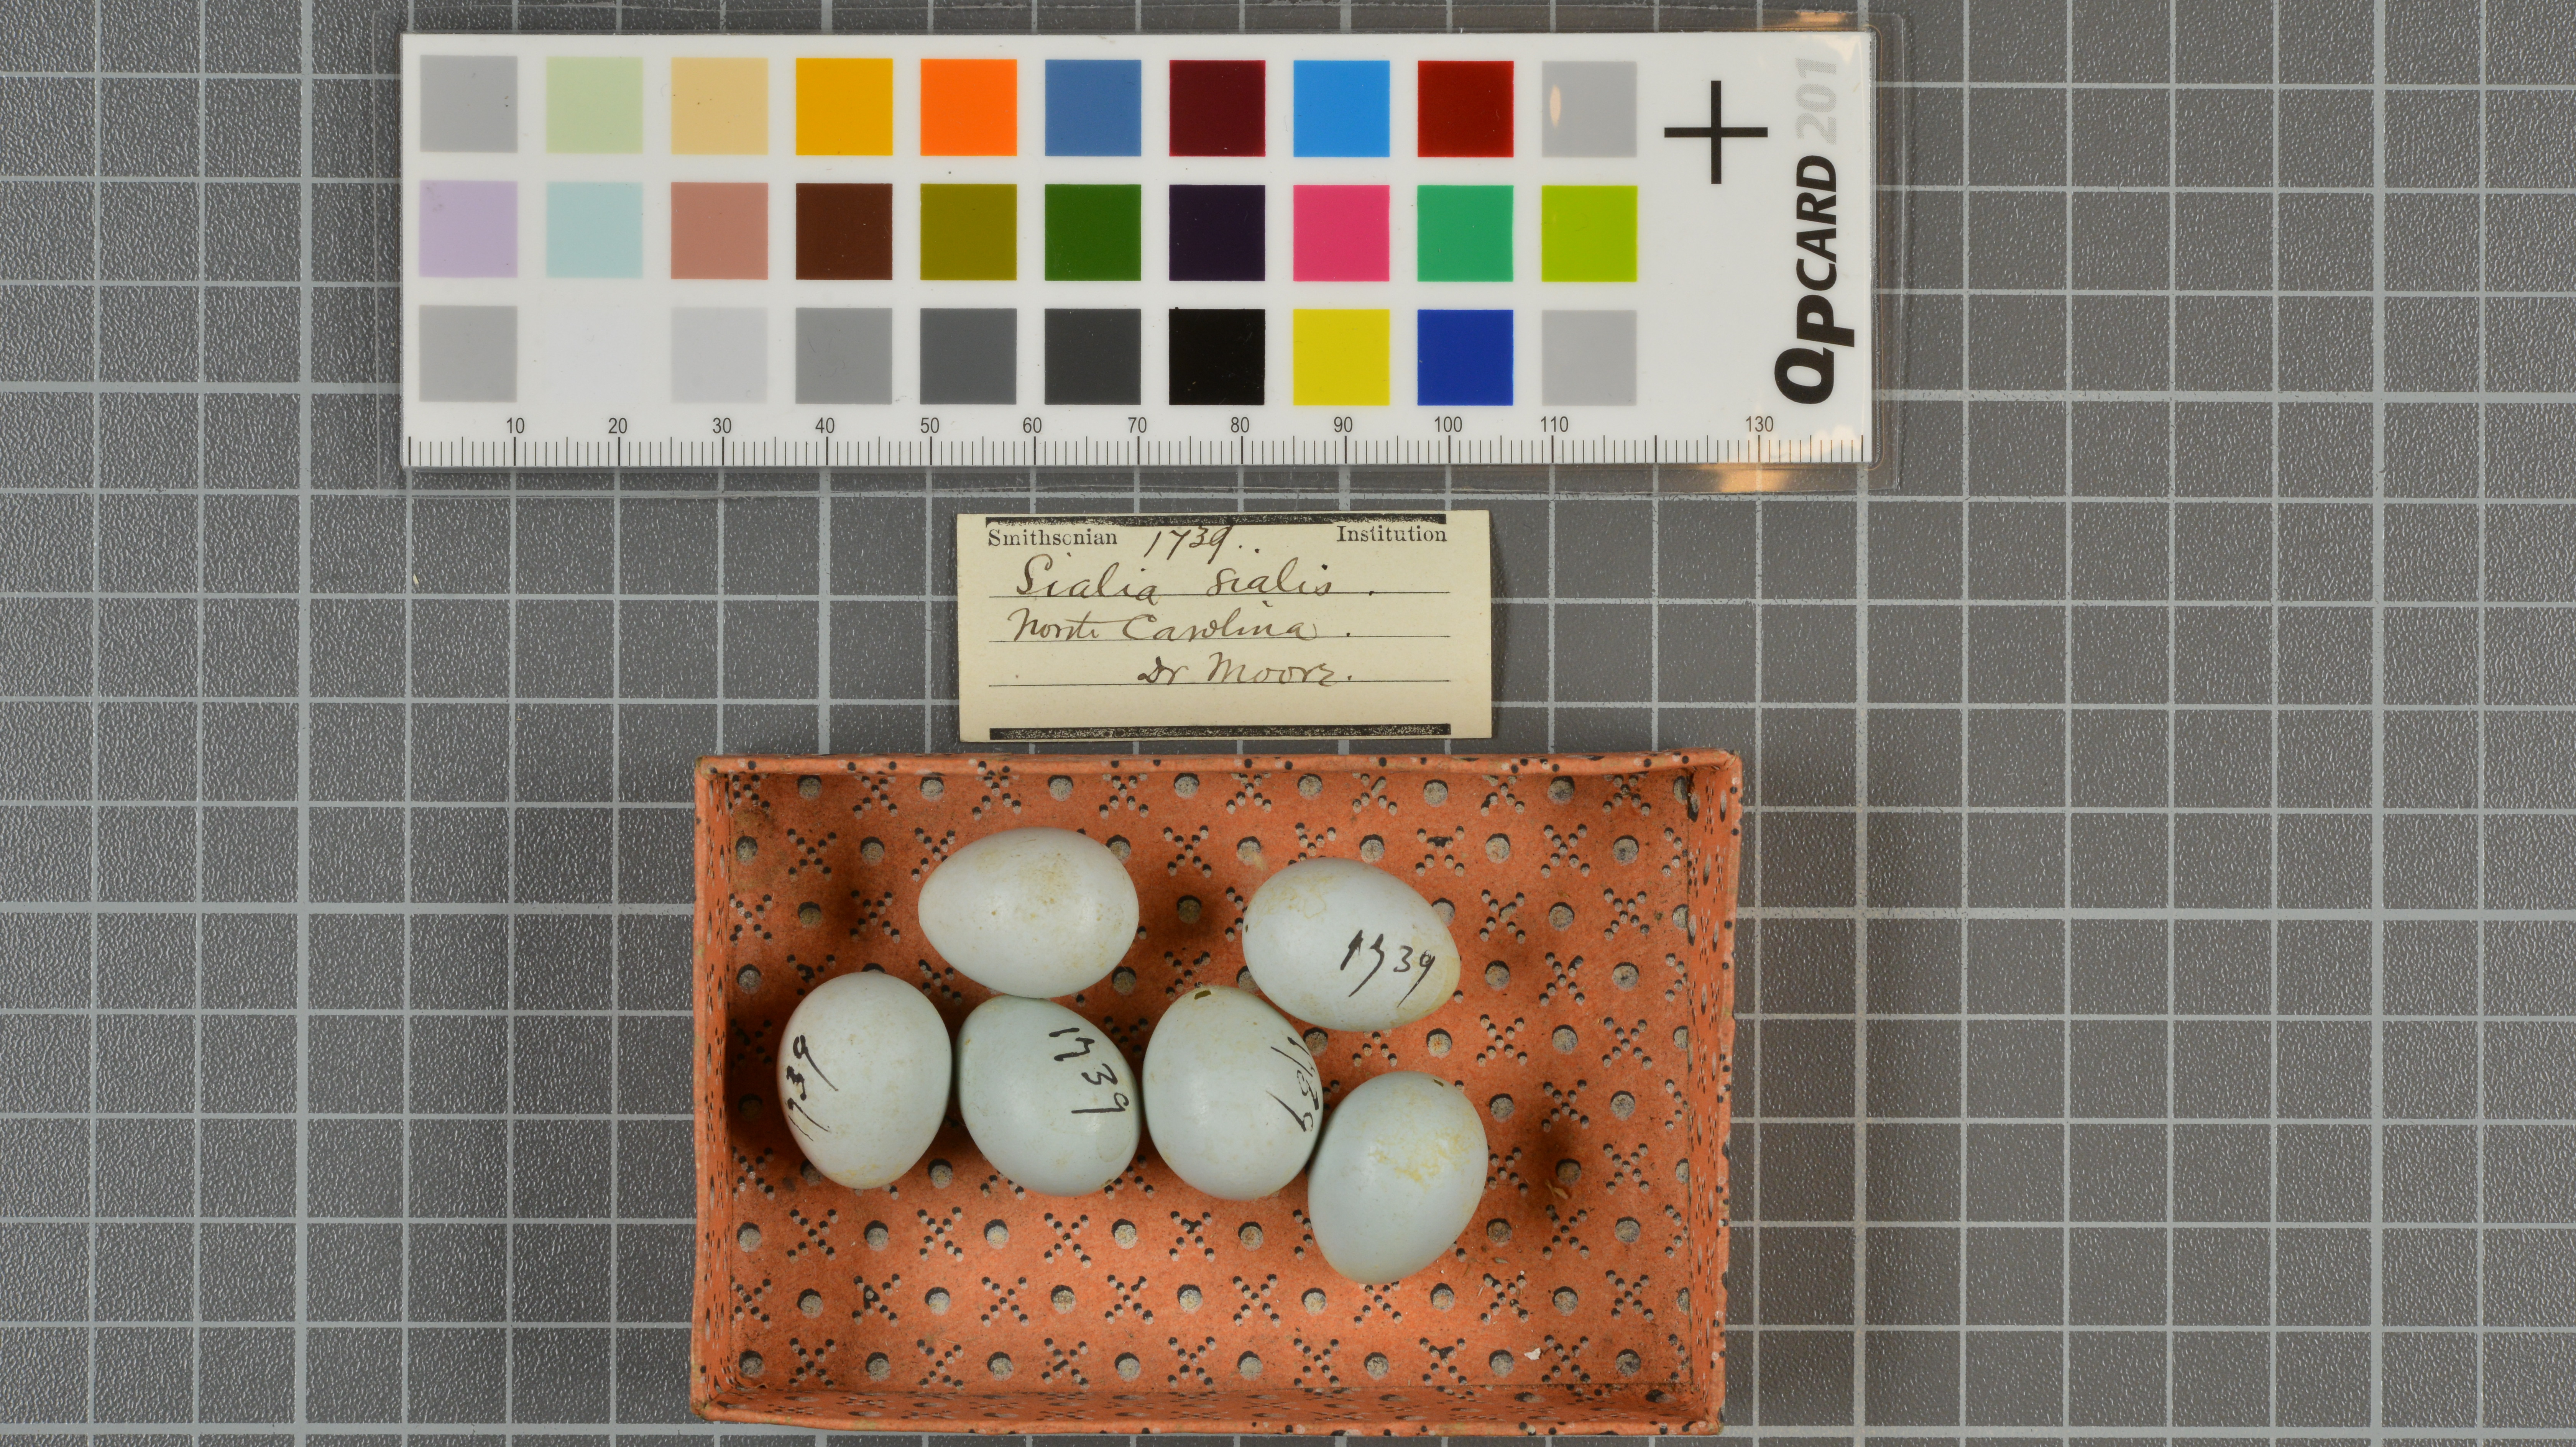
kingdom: Animalia
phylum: Chordata
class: Aves
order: Passeriformes
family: Turdidae
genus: Sialia
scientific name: Sialia sialis
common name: Eastern bluebird
